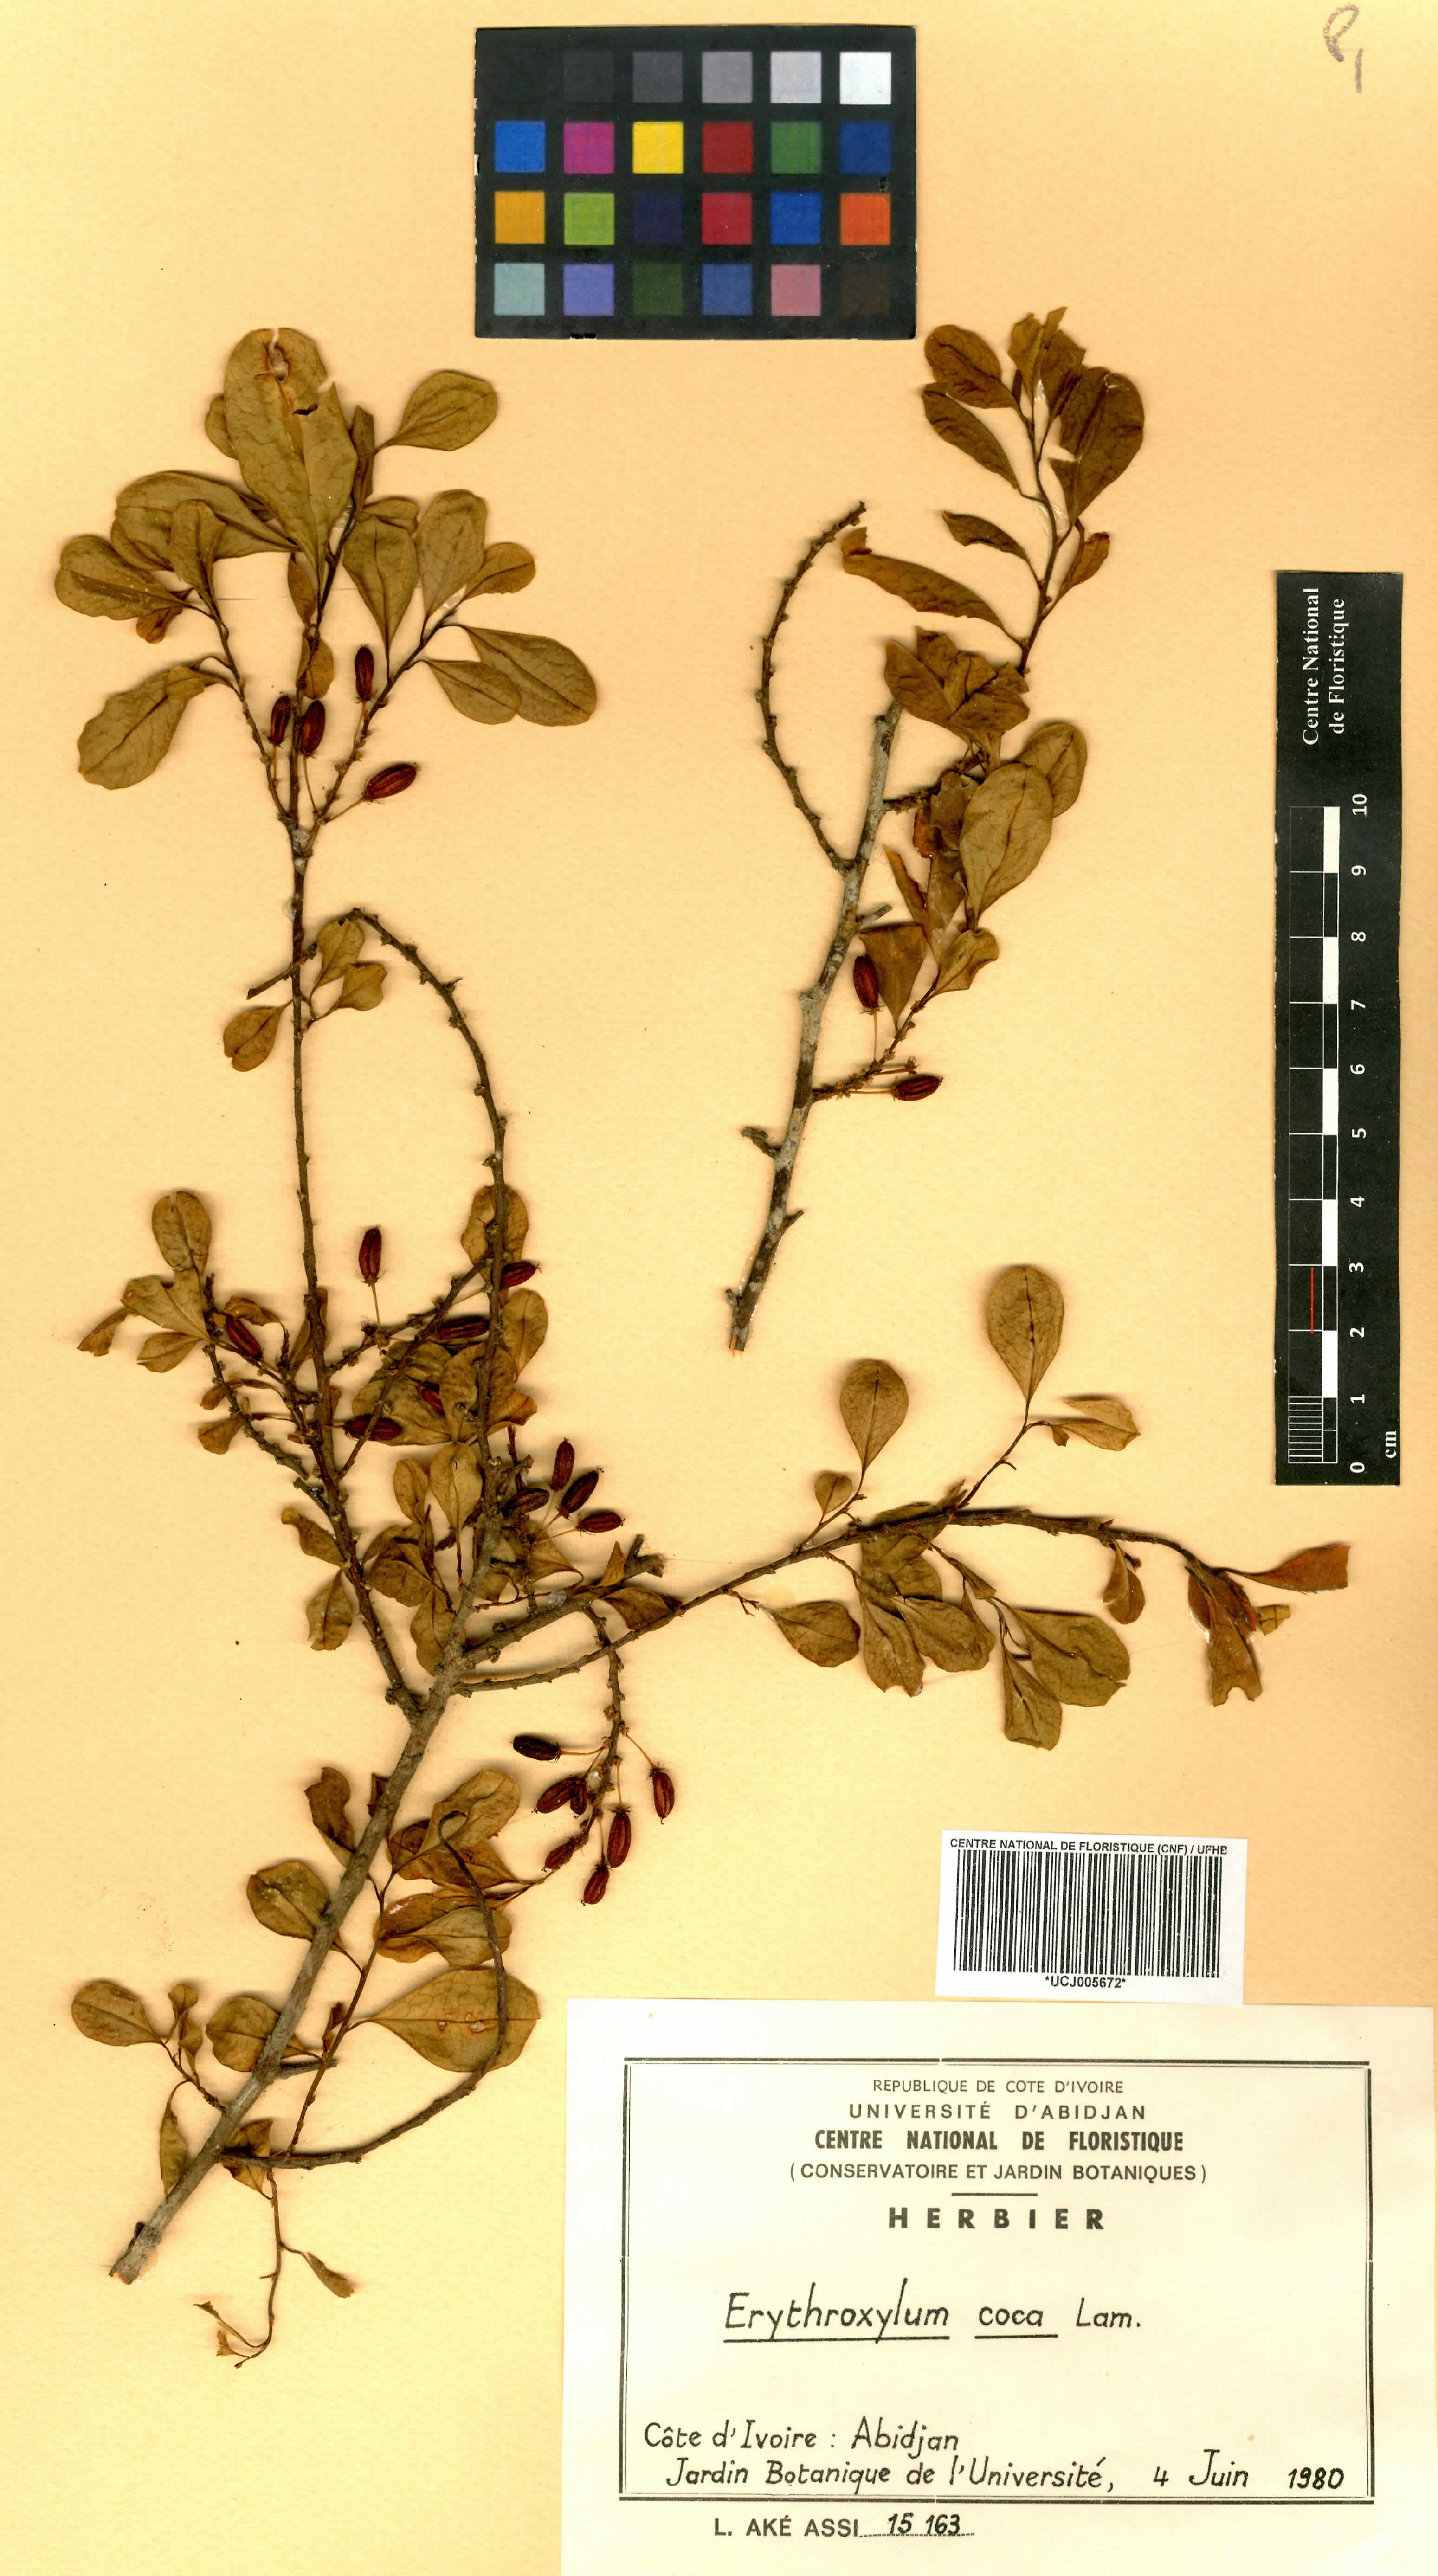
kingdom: Plantae
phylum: Tracheophyta
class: Magnoliopsida
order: Malpighiales
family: Erythroxylaceae
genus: Erythroxylum
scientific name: Erythroxylum coca
